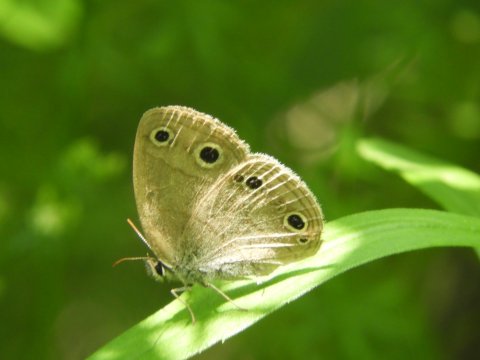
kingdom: Animalia
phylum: Arthropoda
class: Insecta
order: Lepidoptera
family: Nymphalidae
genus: Euptychia
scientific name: Euptychia cymela
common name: Little Wood Satyr
